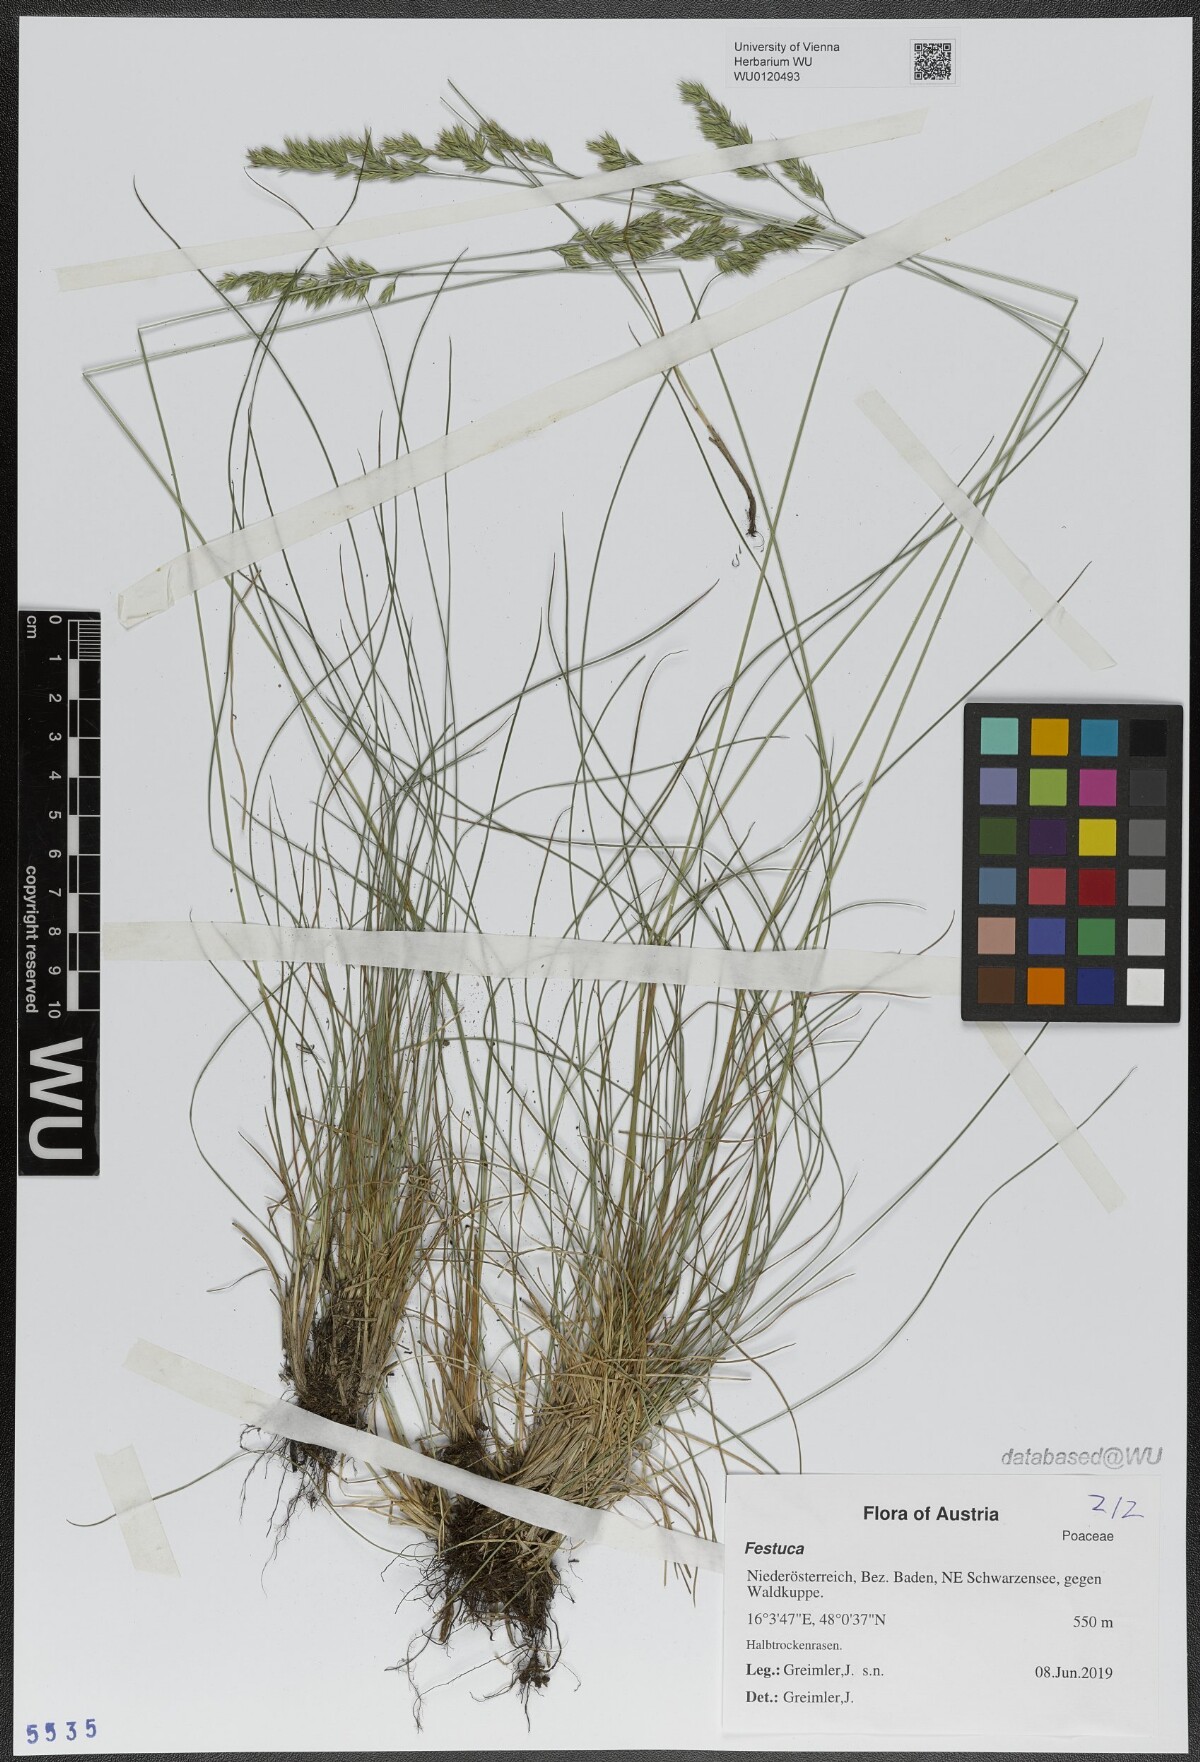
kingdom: Plantae
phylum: Tracheophyta
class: Liliopsida
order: Poales
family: Poaceae
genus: Festuca
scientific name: Festuca
